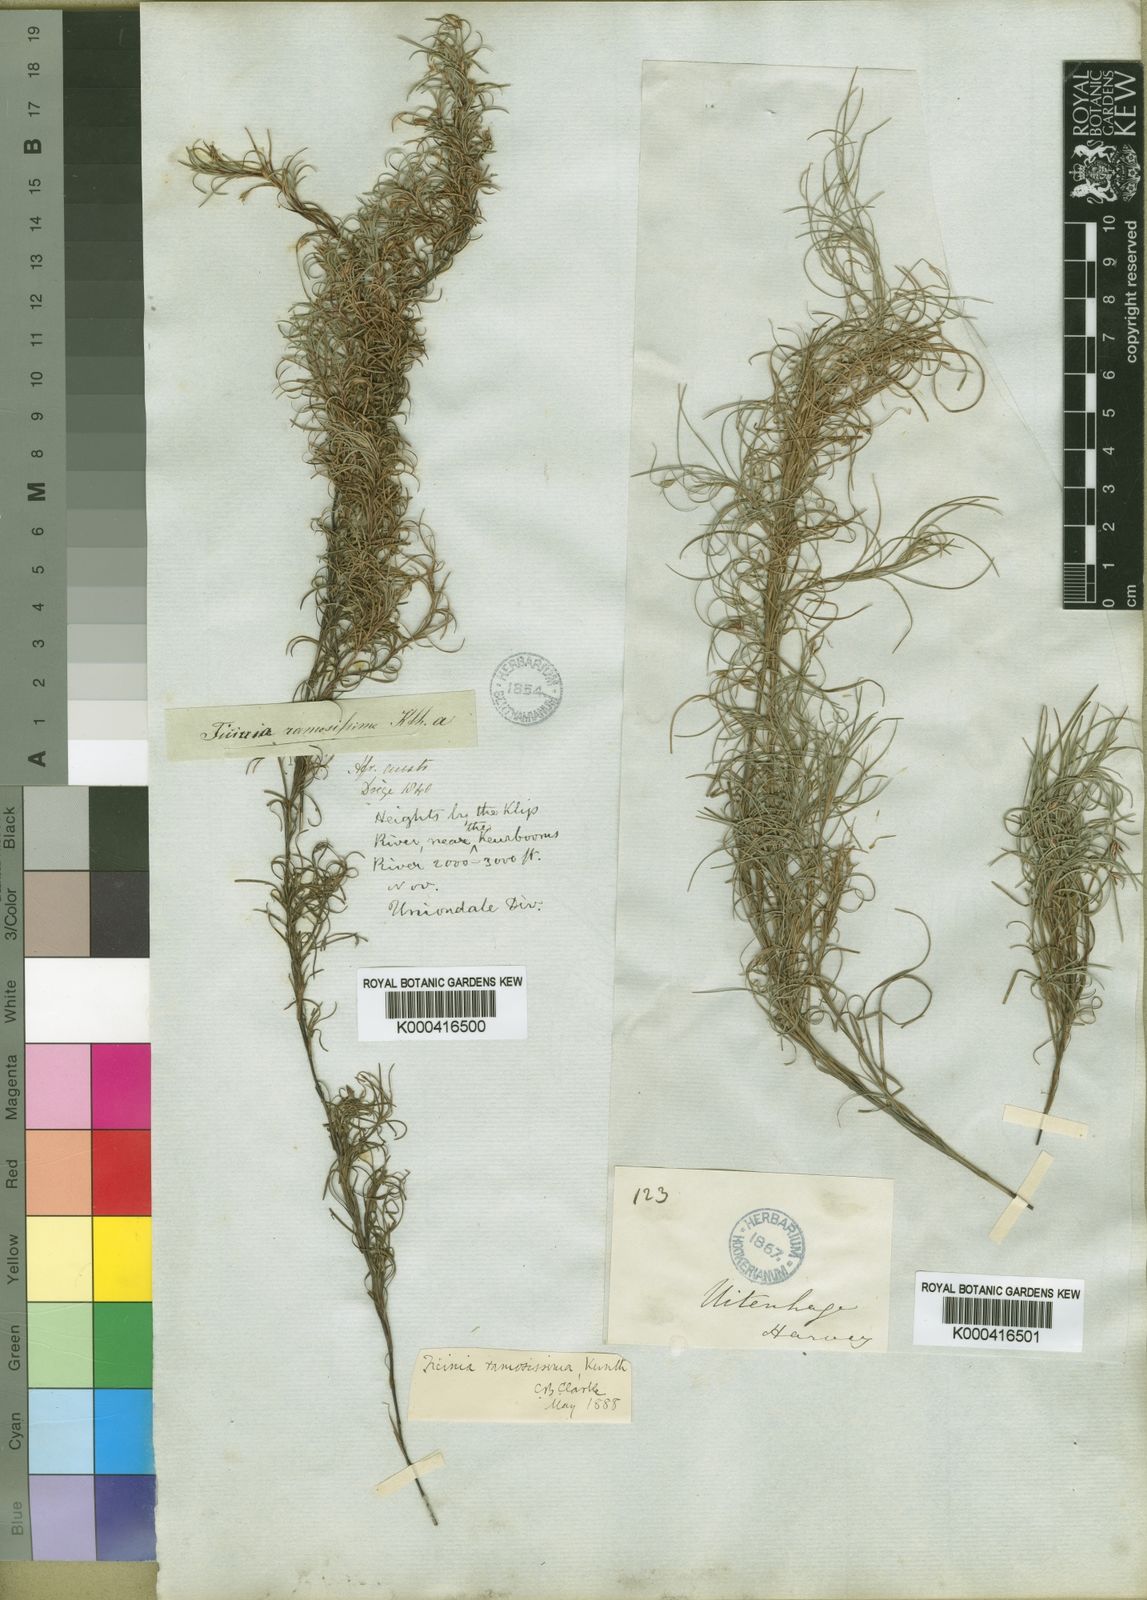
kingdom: Plantae
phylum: Tracheophyta
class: Liliopsida
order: Poales
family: Cyperaceae
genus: Ficinia
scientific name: Ficinia ramosissima
